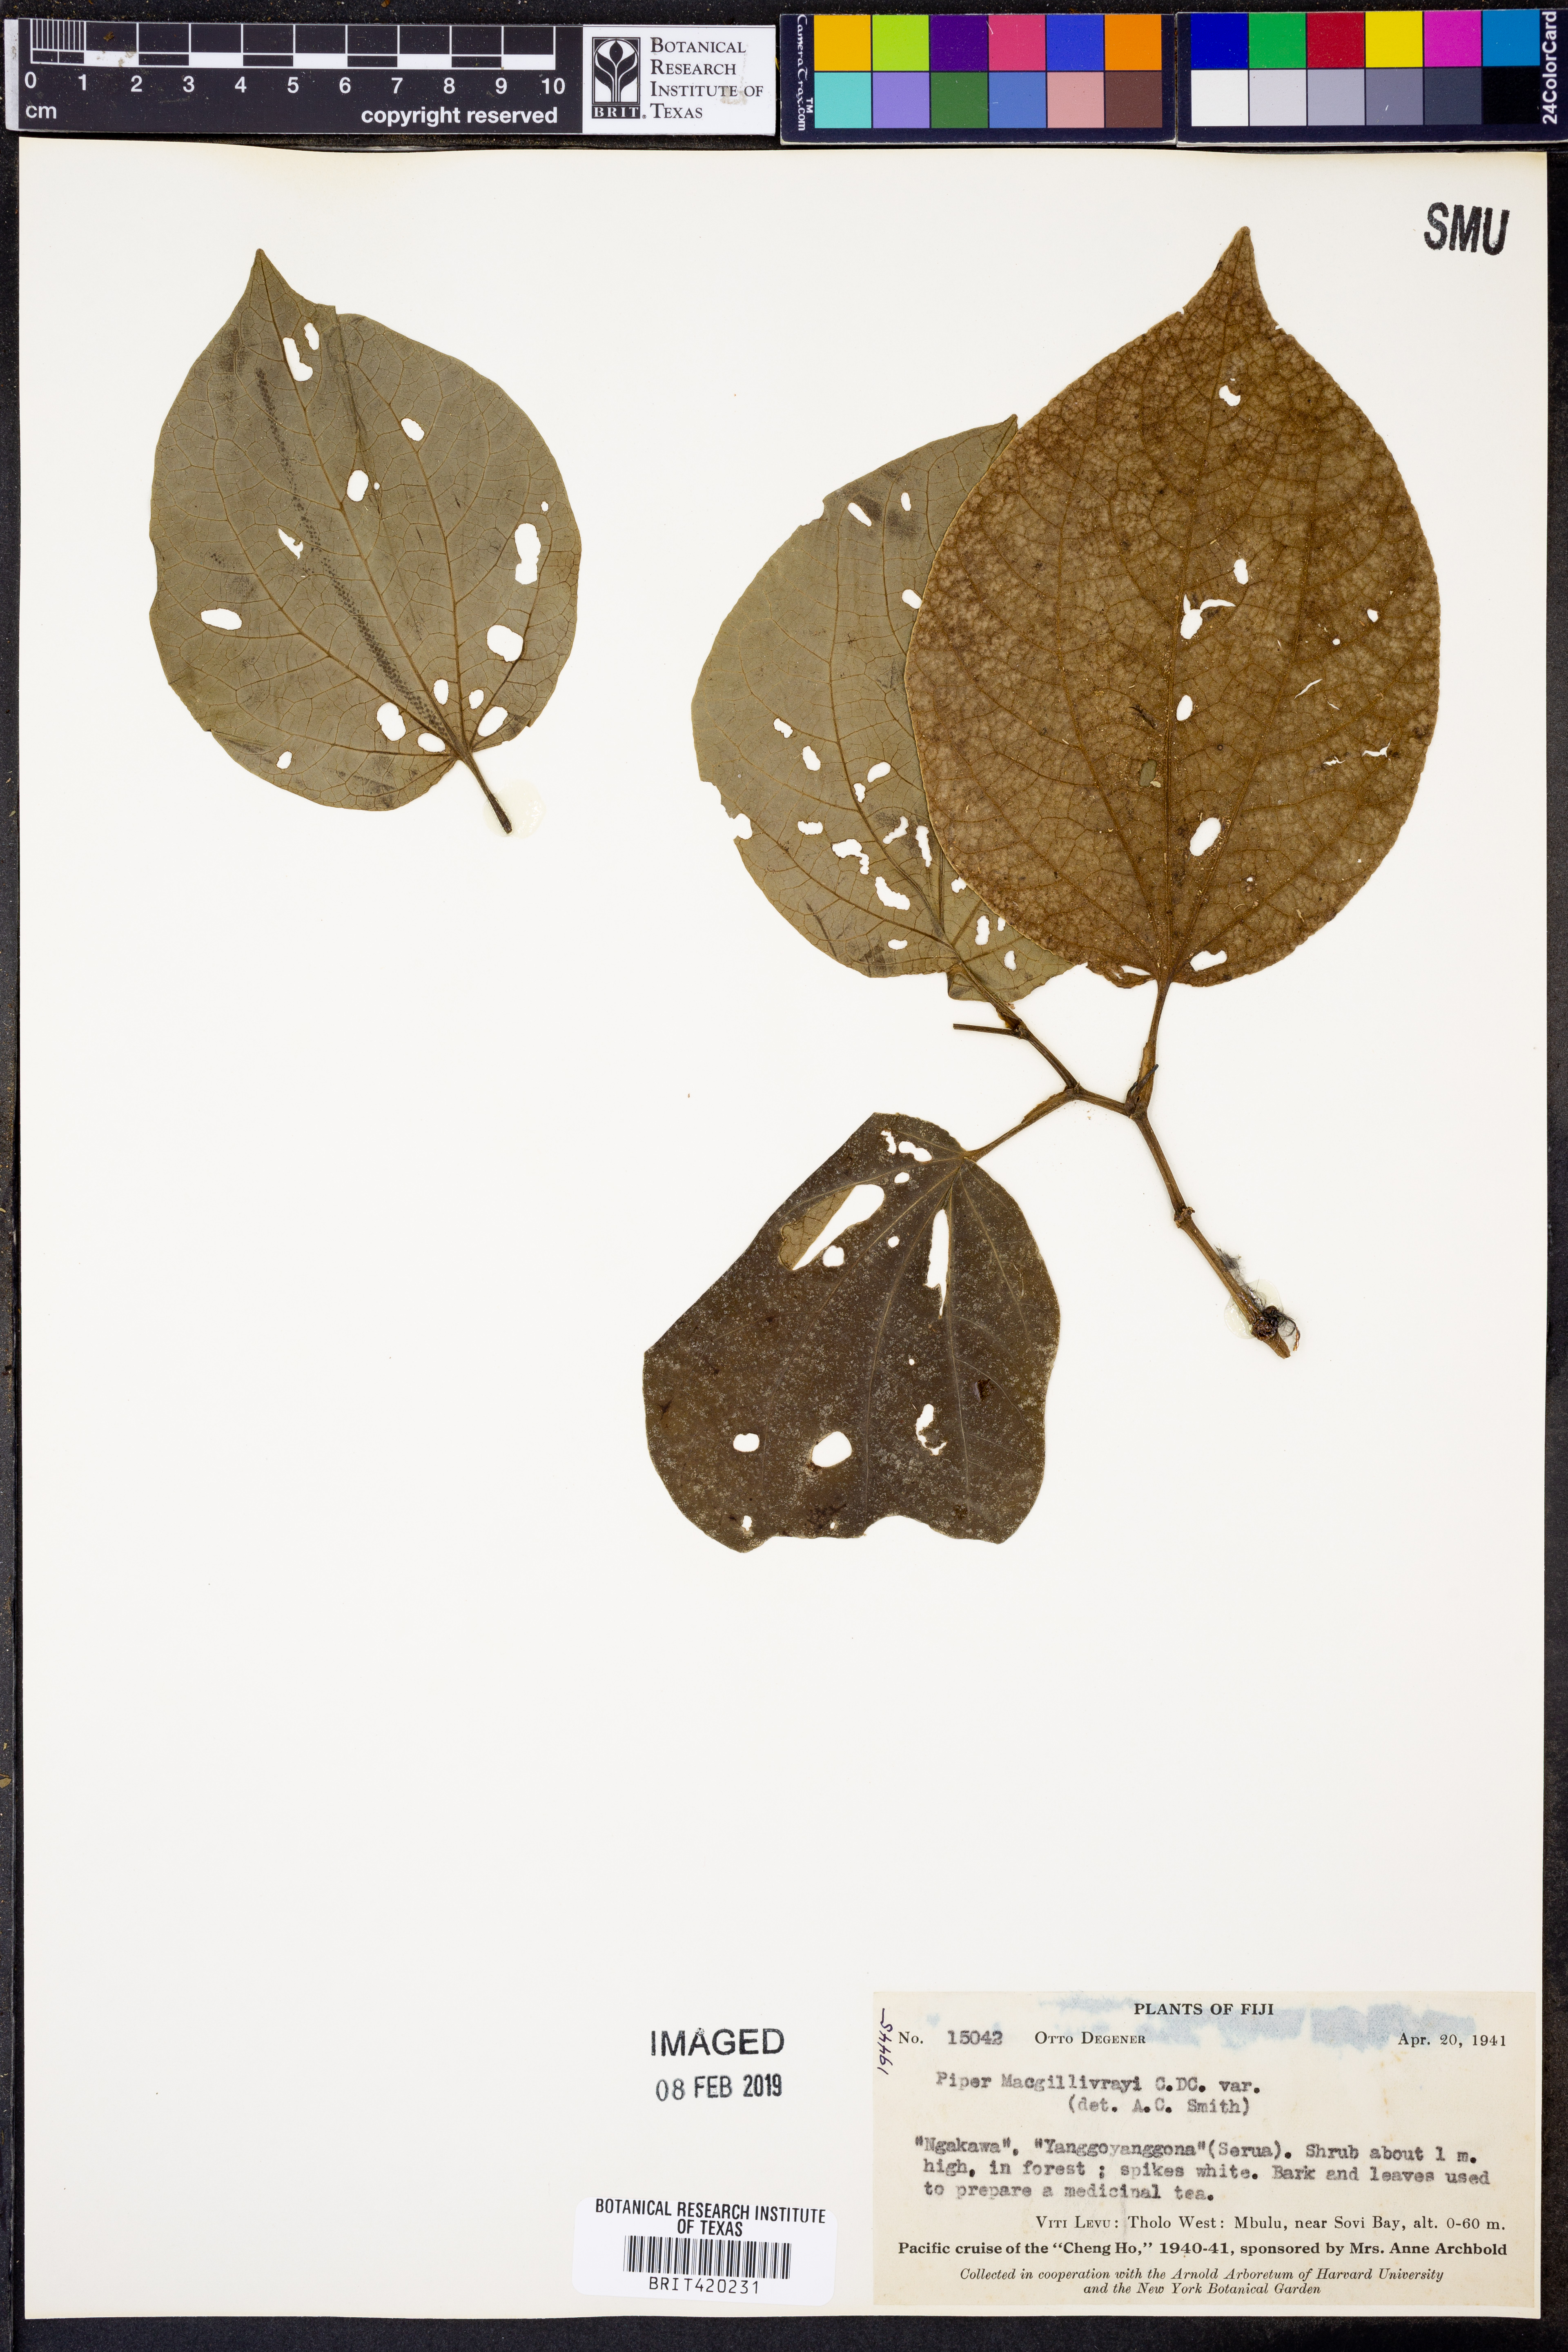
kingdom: Plantae
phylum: Tracheophyta
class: Magnoliopsida
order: Piperales
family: Piperaceae
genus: Macropiper
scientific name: Macropiper puberulum
